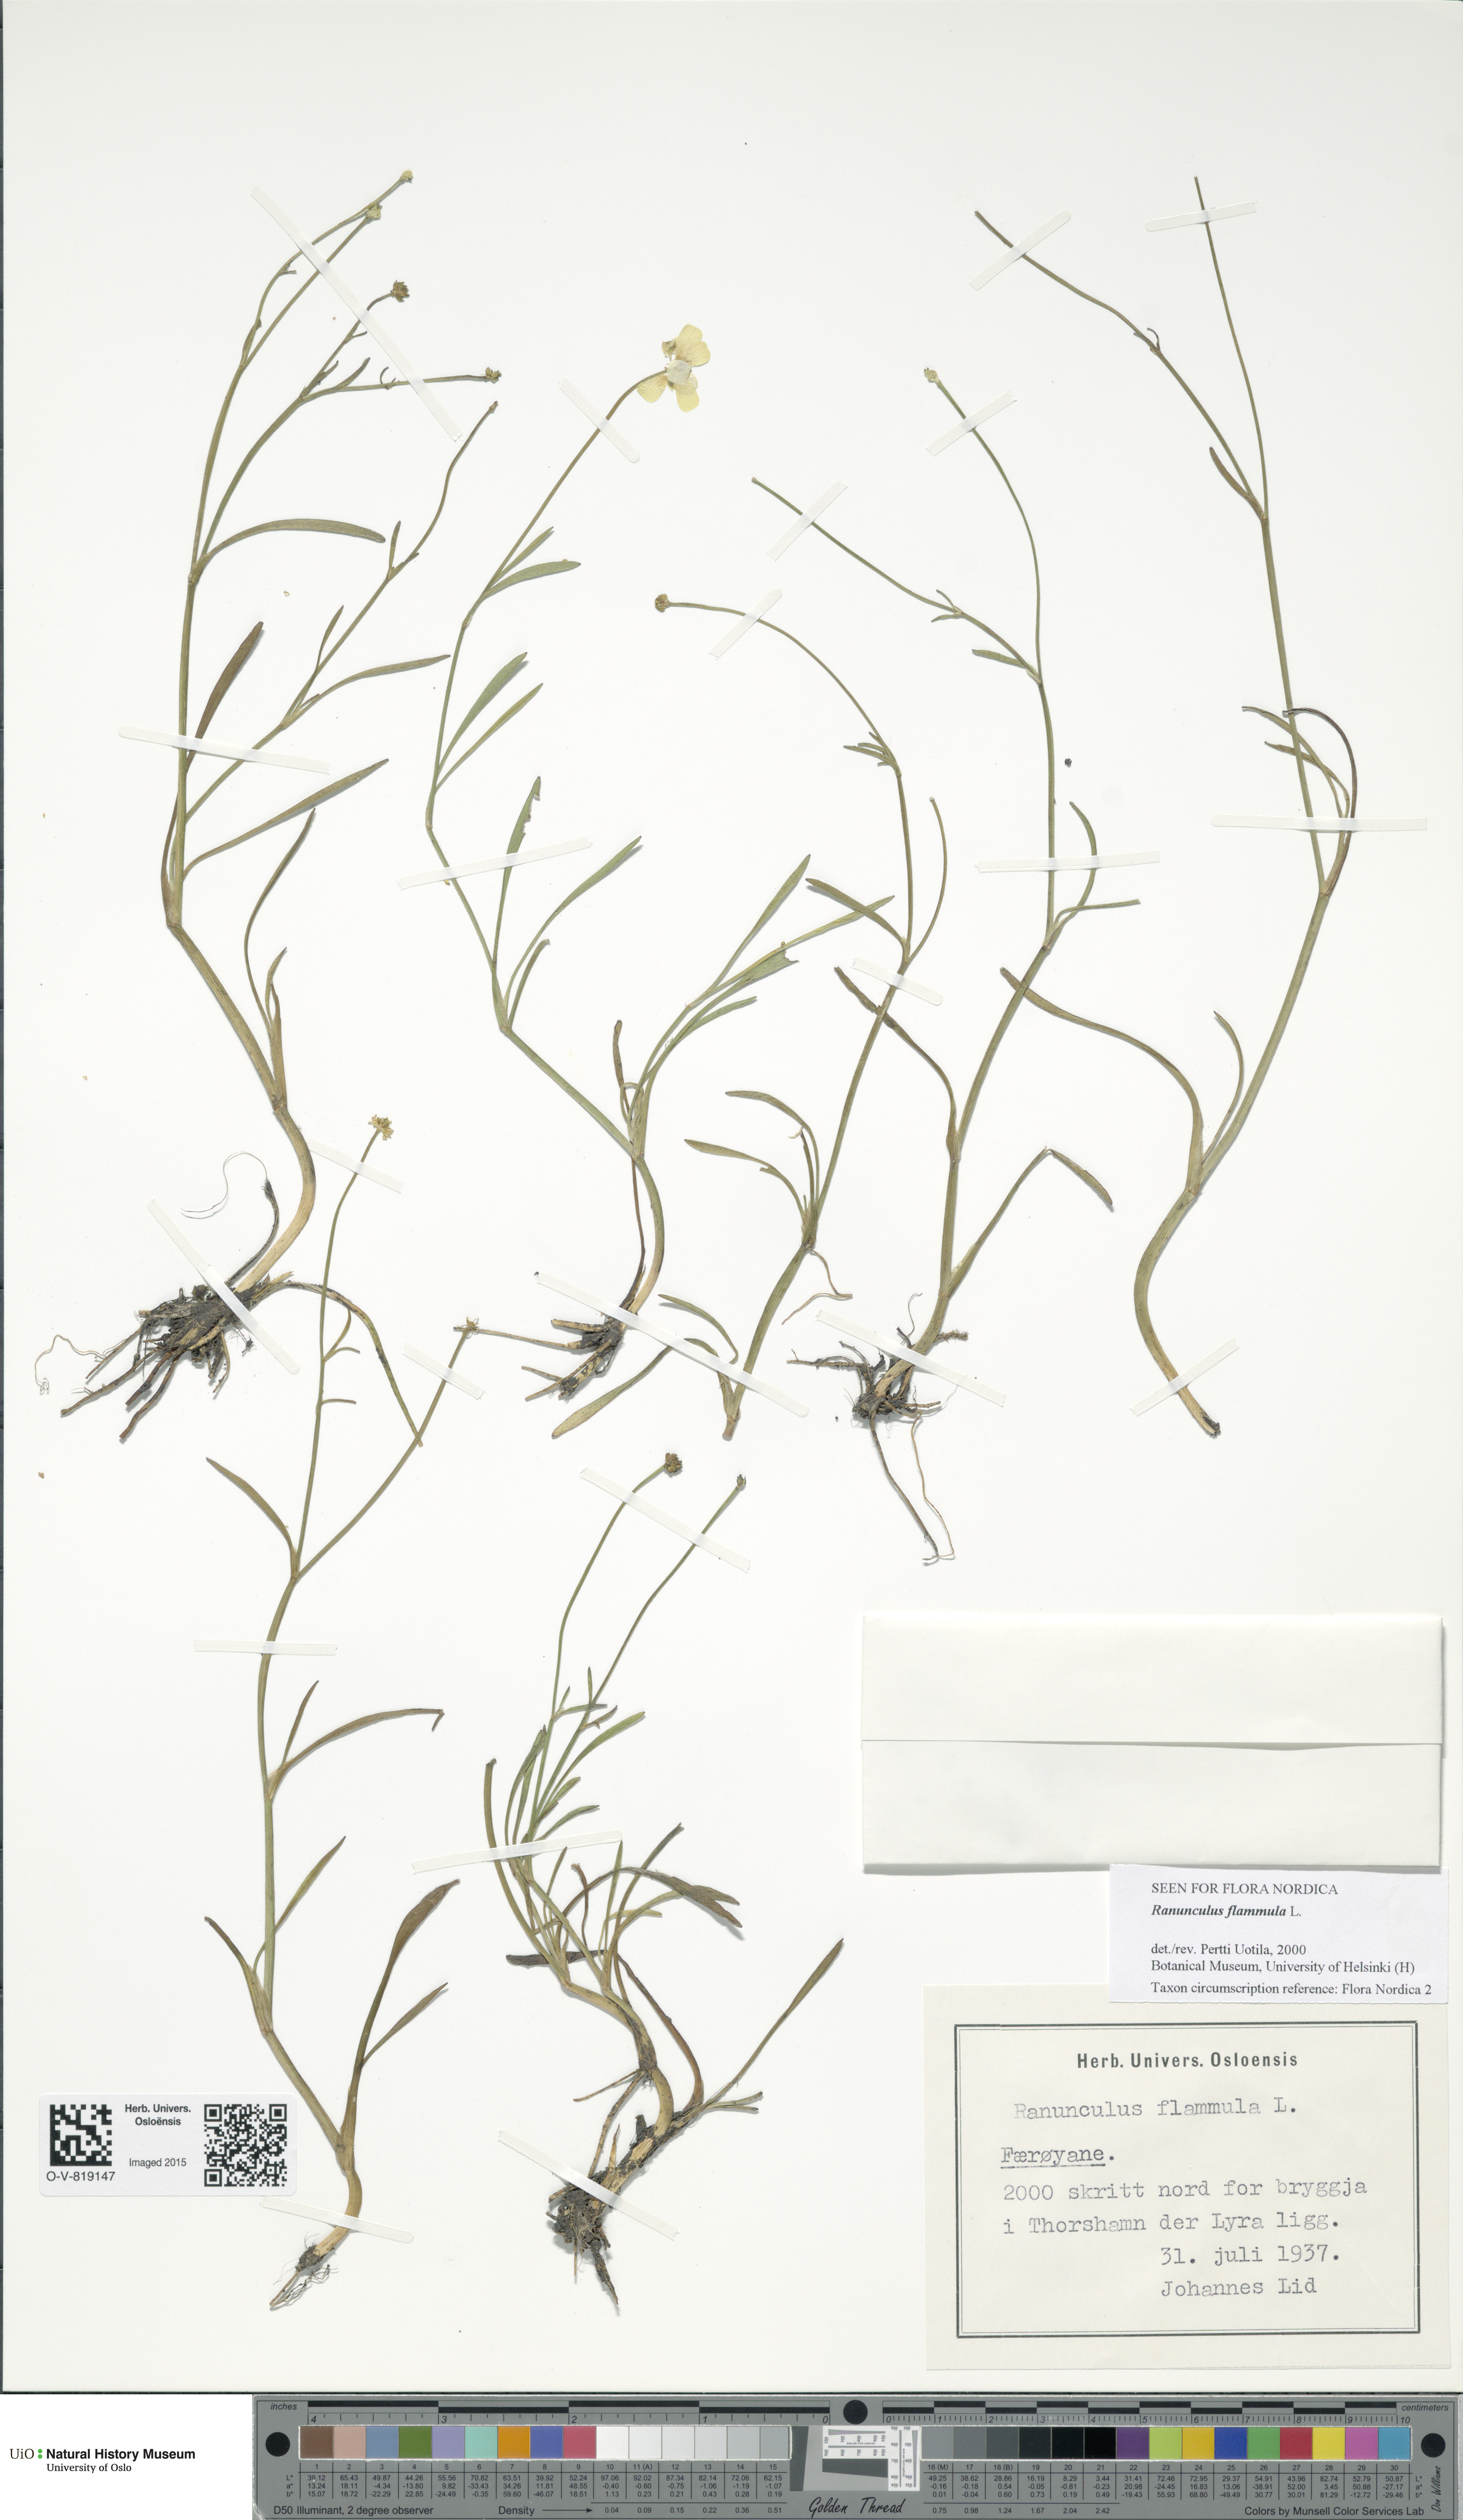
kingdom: Plantae
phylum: Tracheophyta
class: Magnoliopsida
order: Ranunculales
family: Ranunculaceae
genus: Ranunculus
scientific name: Ranunculus flammula
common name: Lesser spearwort
